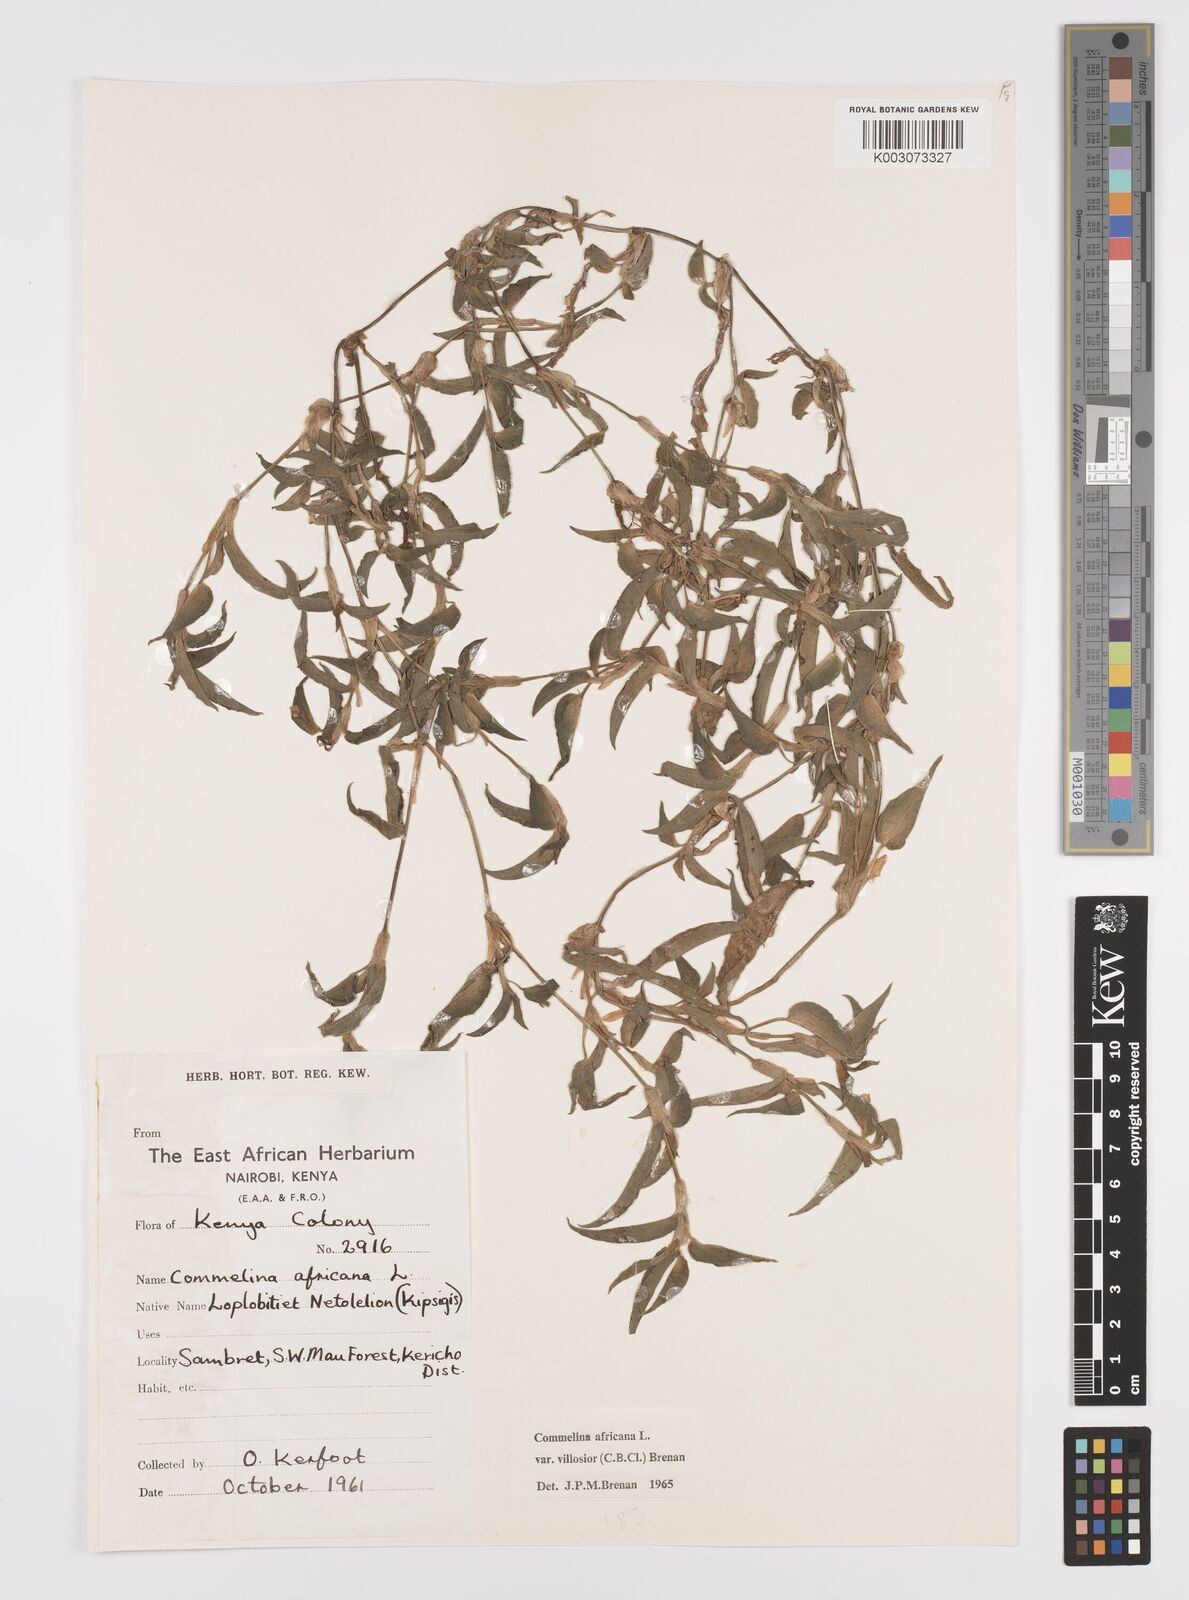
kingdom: Plantae
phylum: Tracheophyta
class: Liliopsida
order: Commelinales
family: Commelinaceae
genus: Commelina
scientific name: Commelina africana
